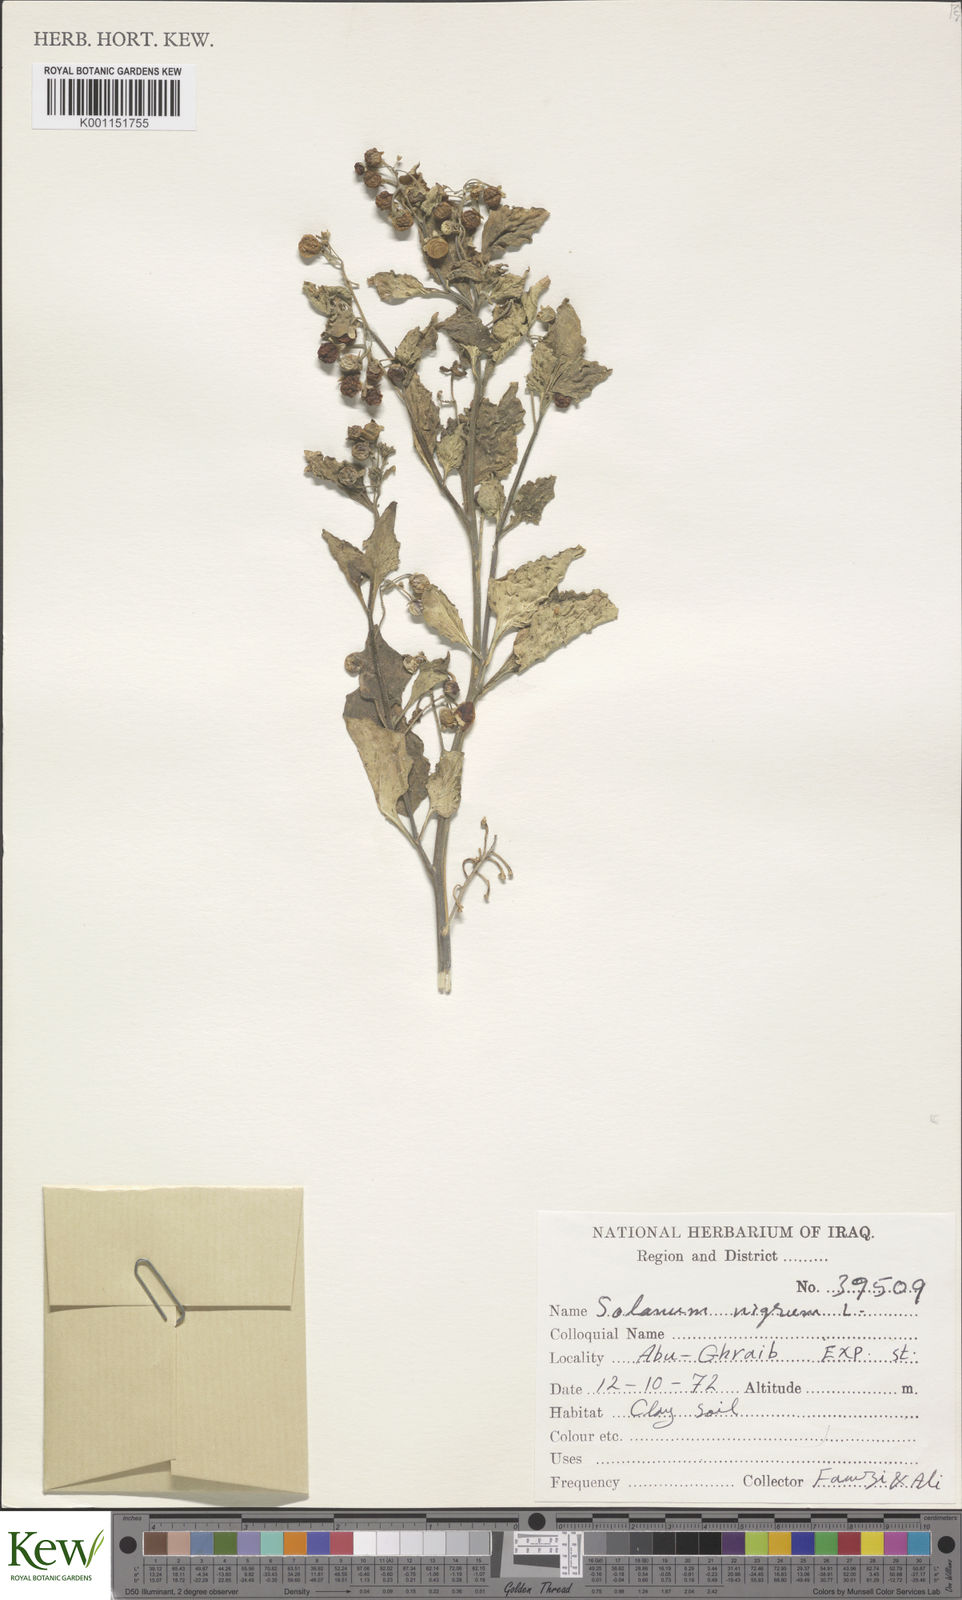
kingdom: Plantae
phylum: Tracheophyta
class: Magnoliopsida
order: Solanales
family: Solanaceae
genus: Solanum
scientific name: Solanum nigrum
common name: Black nightshade
